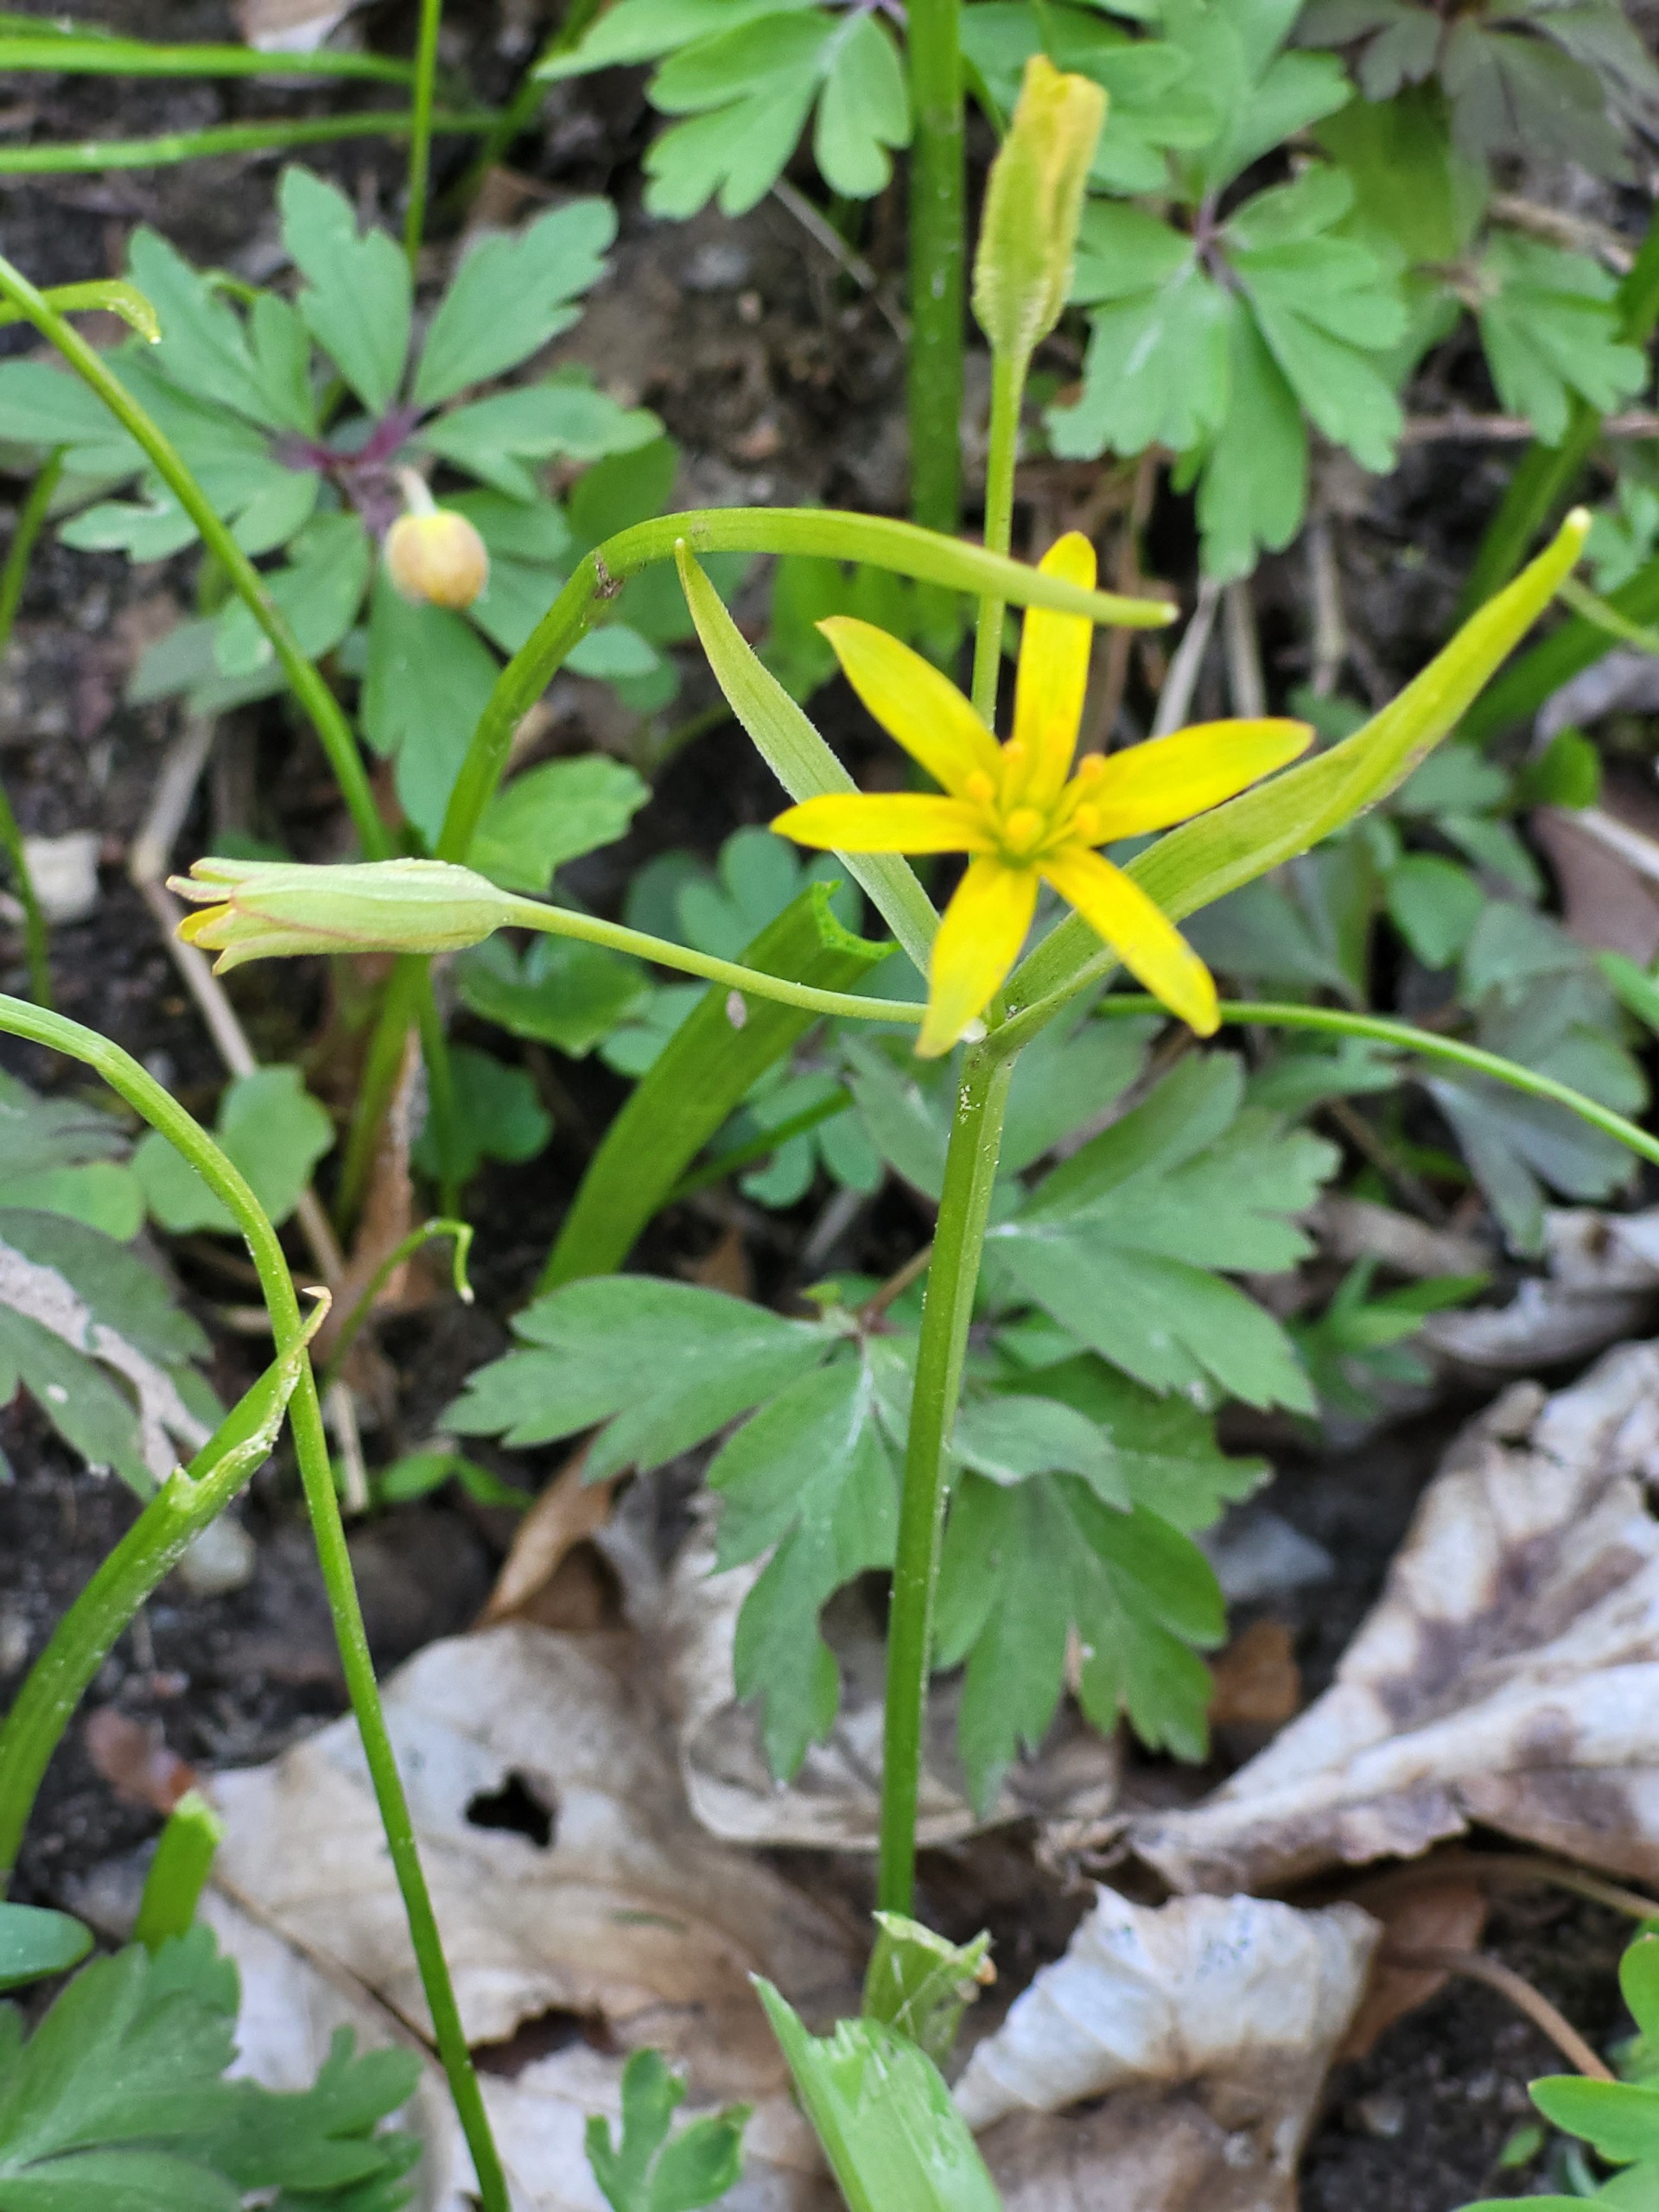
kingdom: Plantae
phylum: Tracheophyta
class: Liliopsida
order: Liliales
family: Liliaceae
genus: Gagea
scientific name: Gagea lutea
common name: Almindelig guldstjerne
